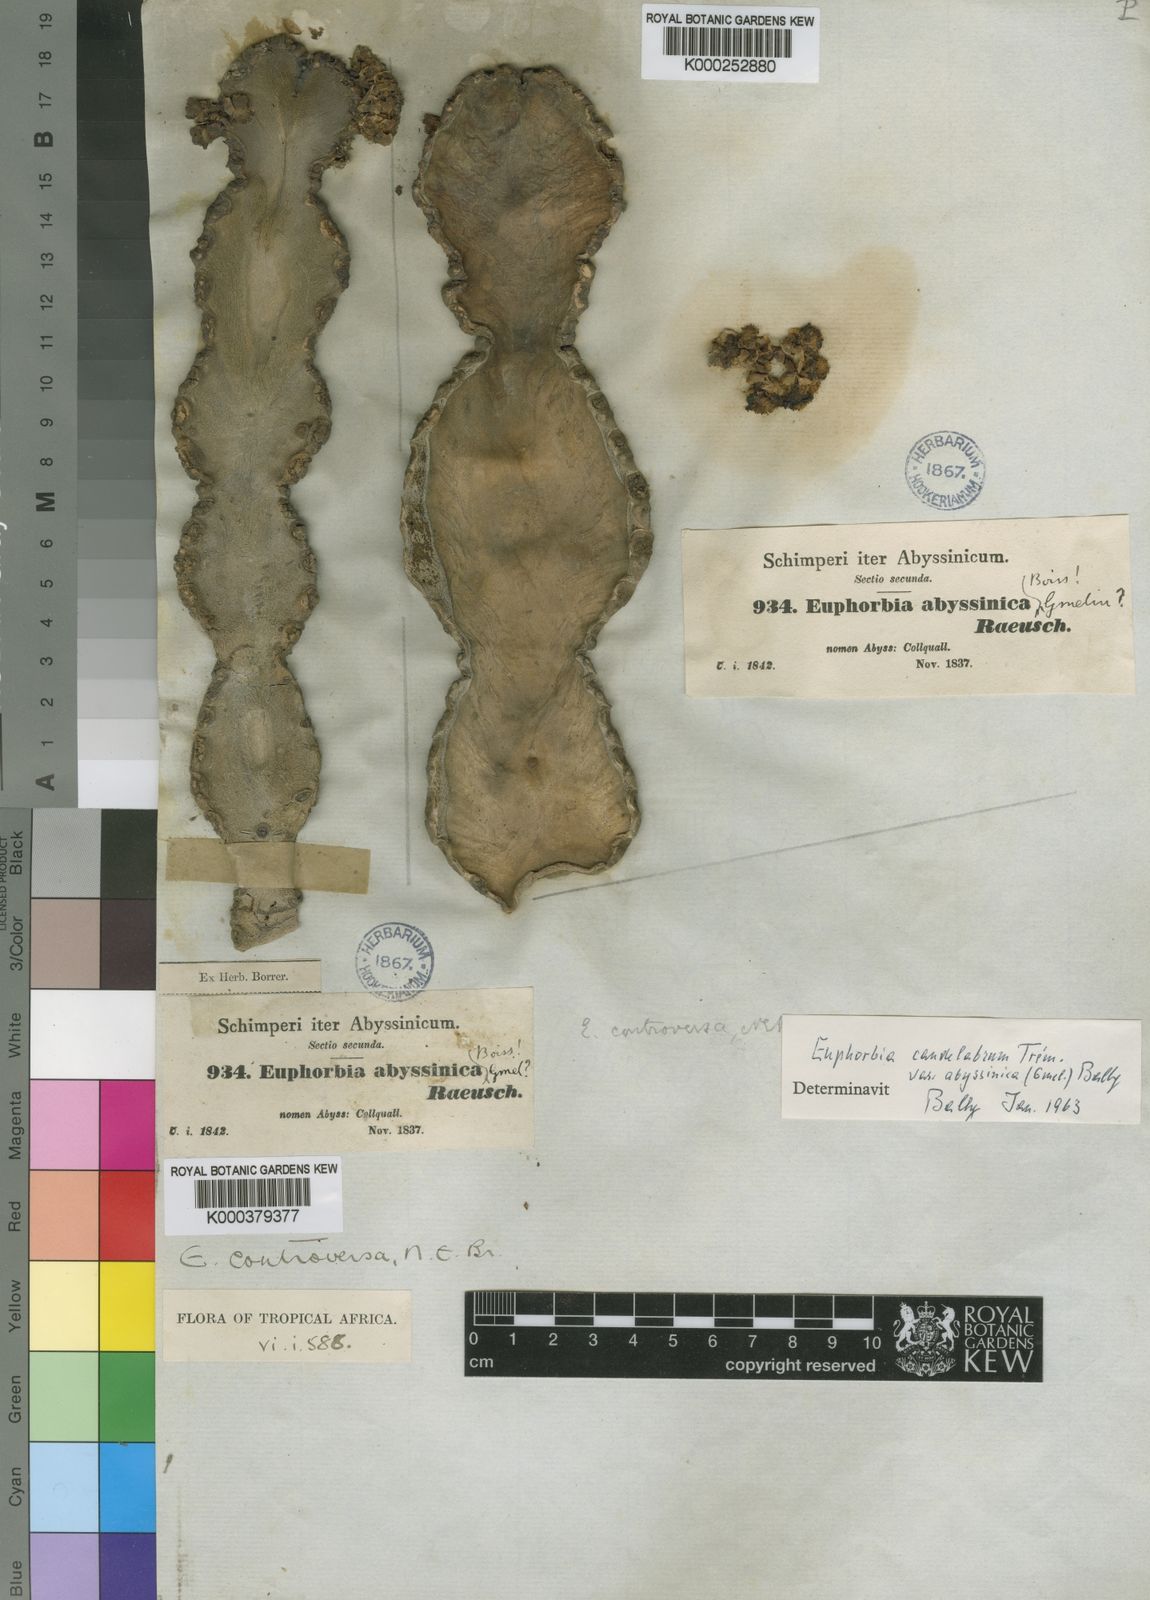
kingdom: Plantae
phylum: Tracheophyta
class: Magnoliopsida
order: Malpighiales
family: Euphorbiaceae
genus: Euphorbia
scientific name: Euphorbia abyssinica
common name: Abyssinian spurge
